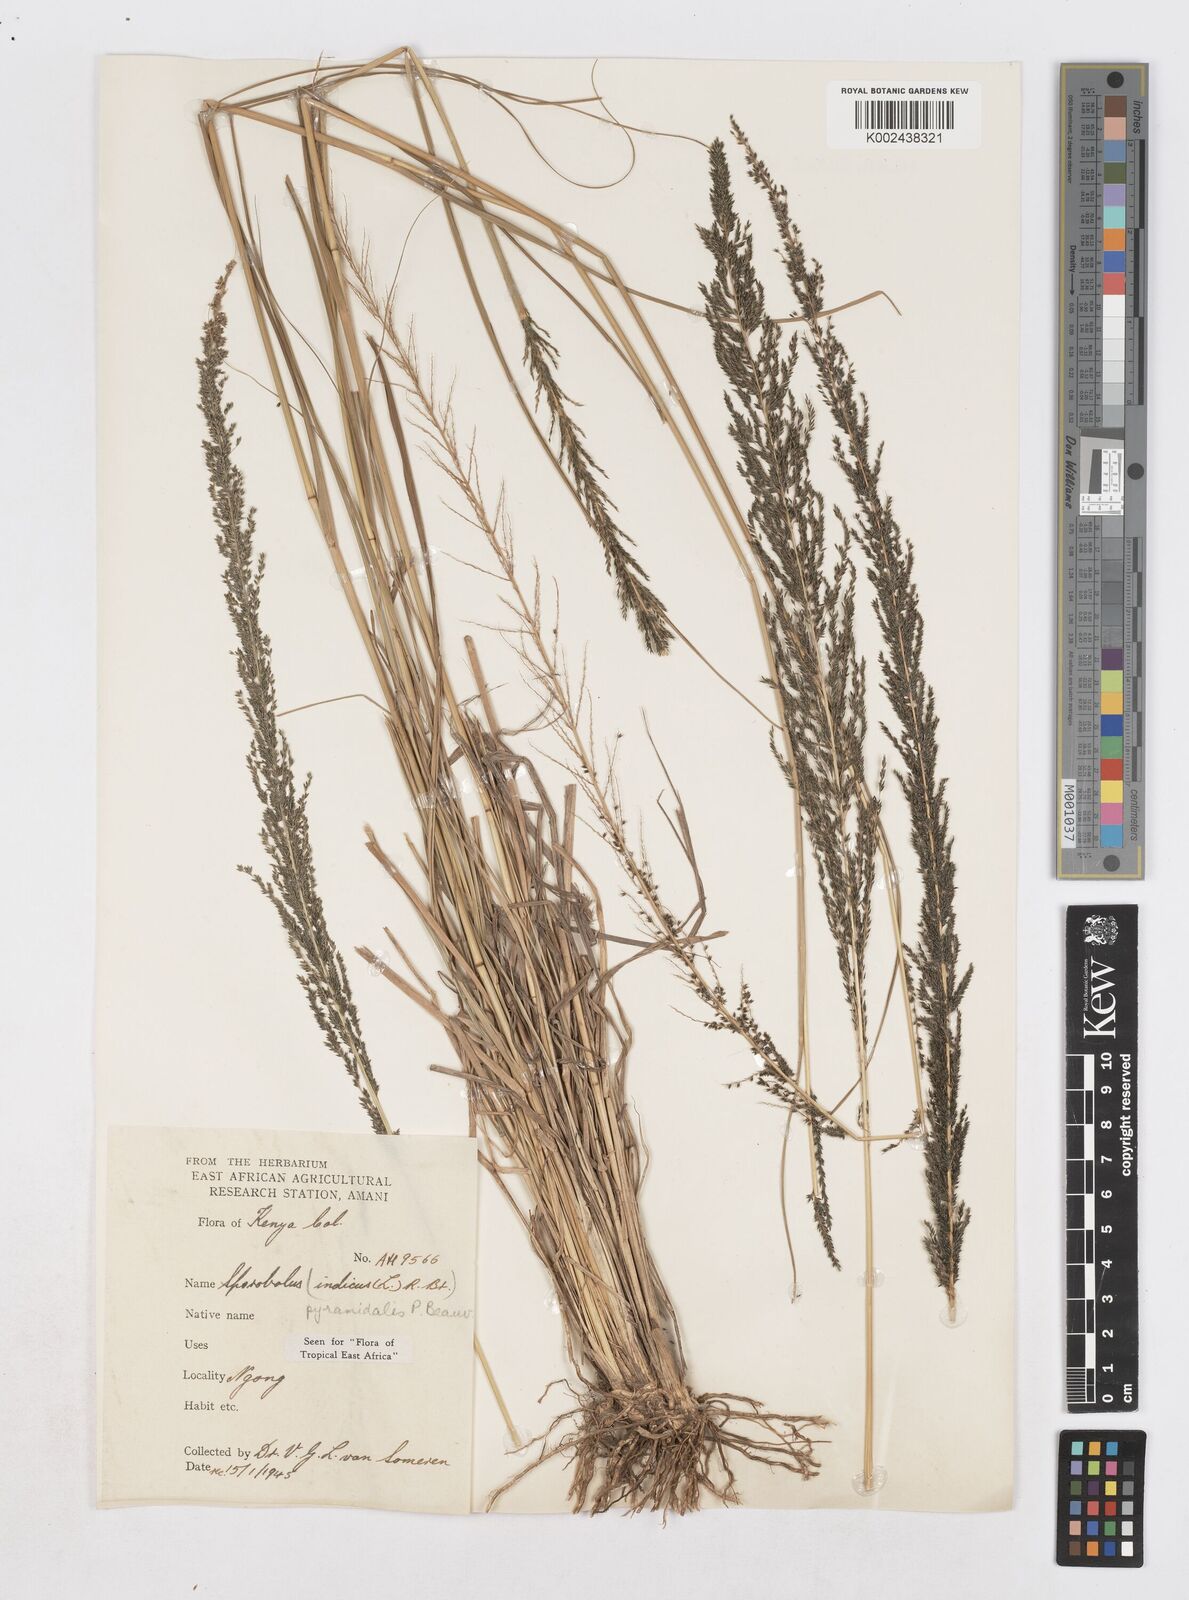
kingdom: Plantae
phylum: Tracheophyta
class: Liliopsida
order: Poales
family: Poaceae
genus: Sporobolus
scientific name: Sporobolus pyramidalis
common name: West indian dropseed
